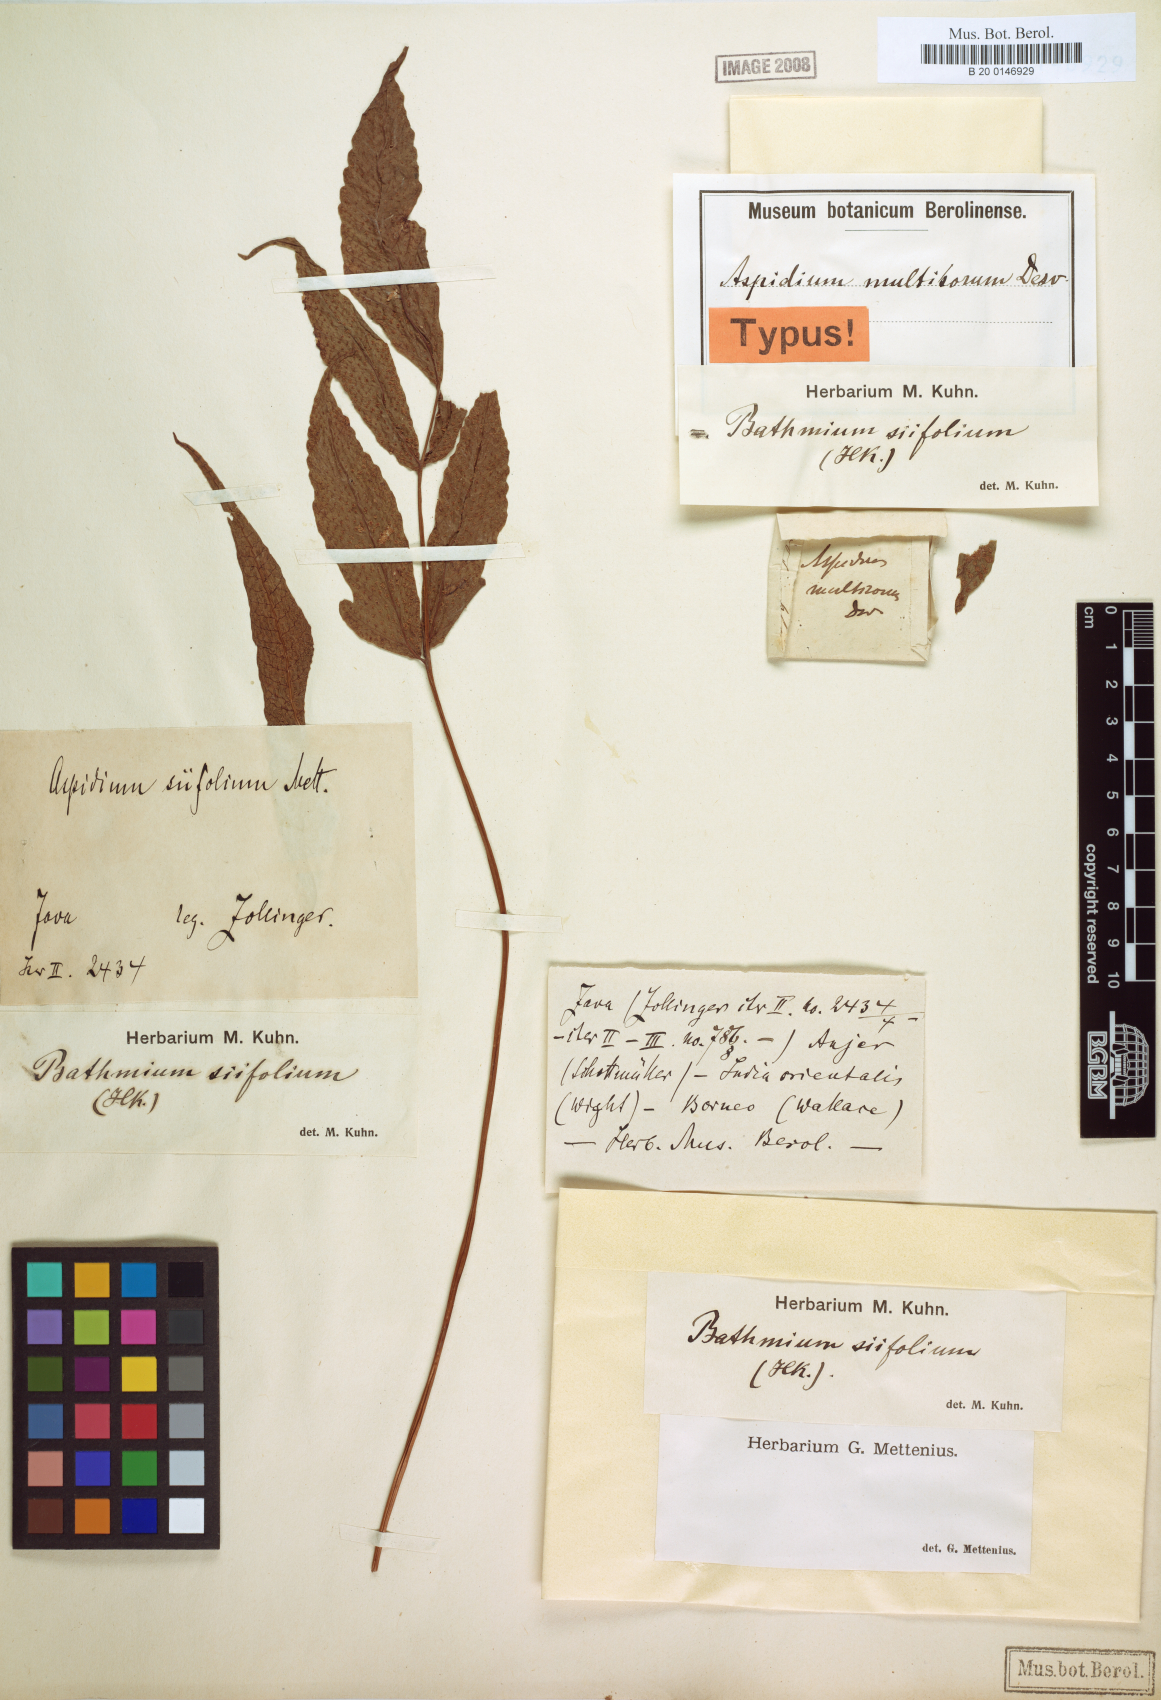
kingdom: Plantae
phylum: Tracheophyta
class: Polypodiopsida
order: Polypodiales
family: Tectariaceae
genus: Tectaria
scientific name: Tectaria incisa
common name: Incised halberd fern
